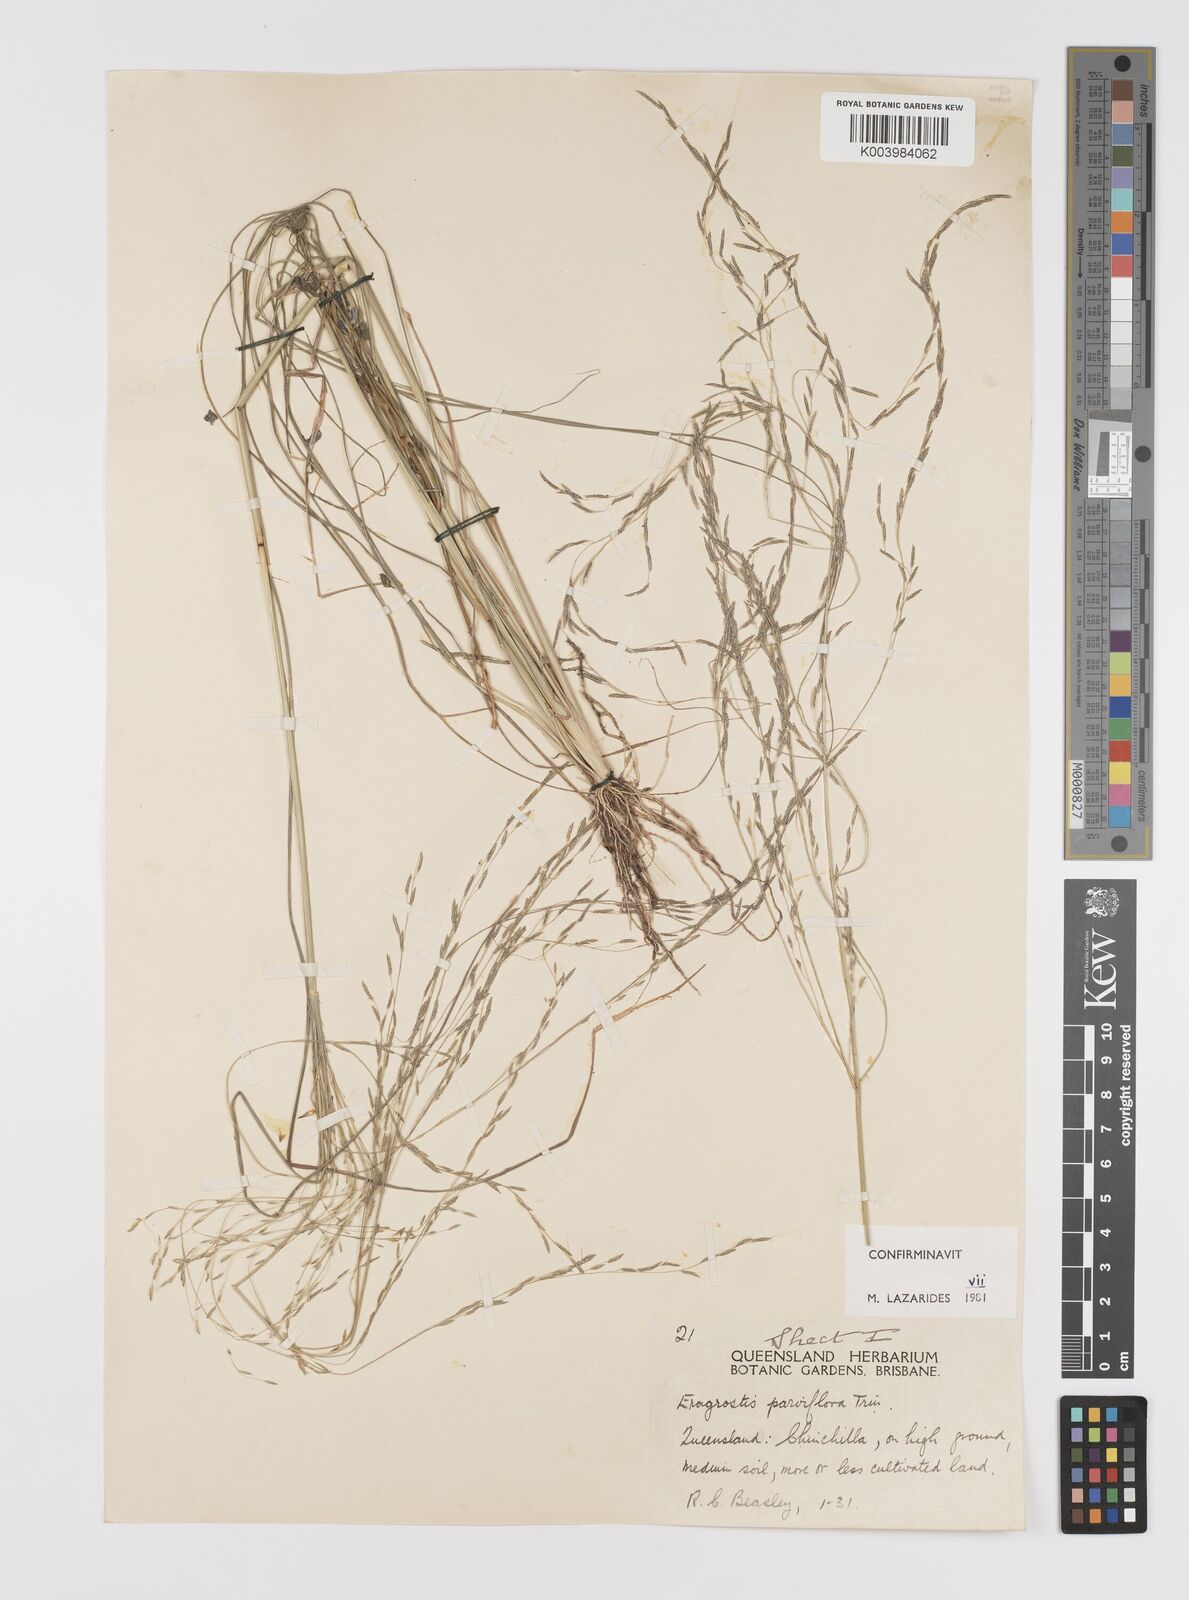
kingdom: Plantae
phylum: Tracheophyta
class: Liliopsida
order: Poales
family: Poaceae
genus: Eragrostis
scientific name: Eragrostis parviflora
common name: Weeping love-grass
